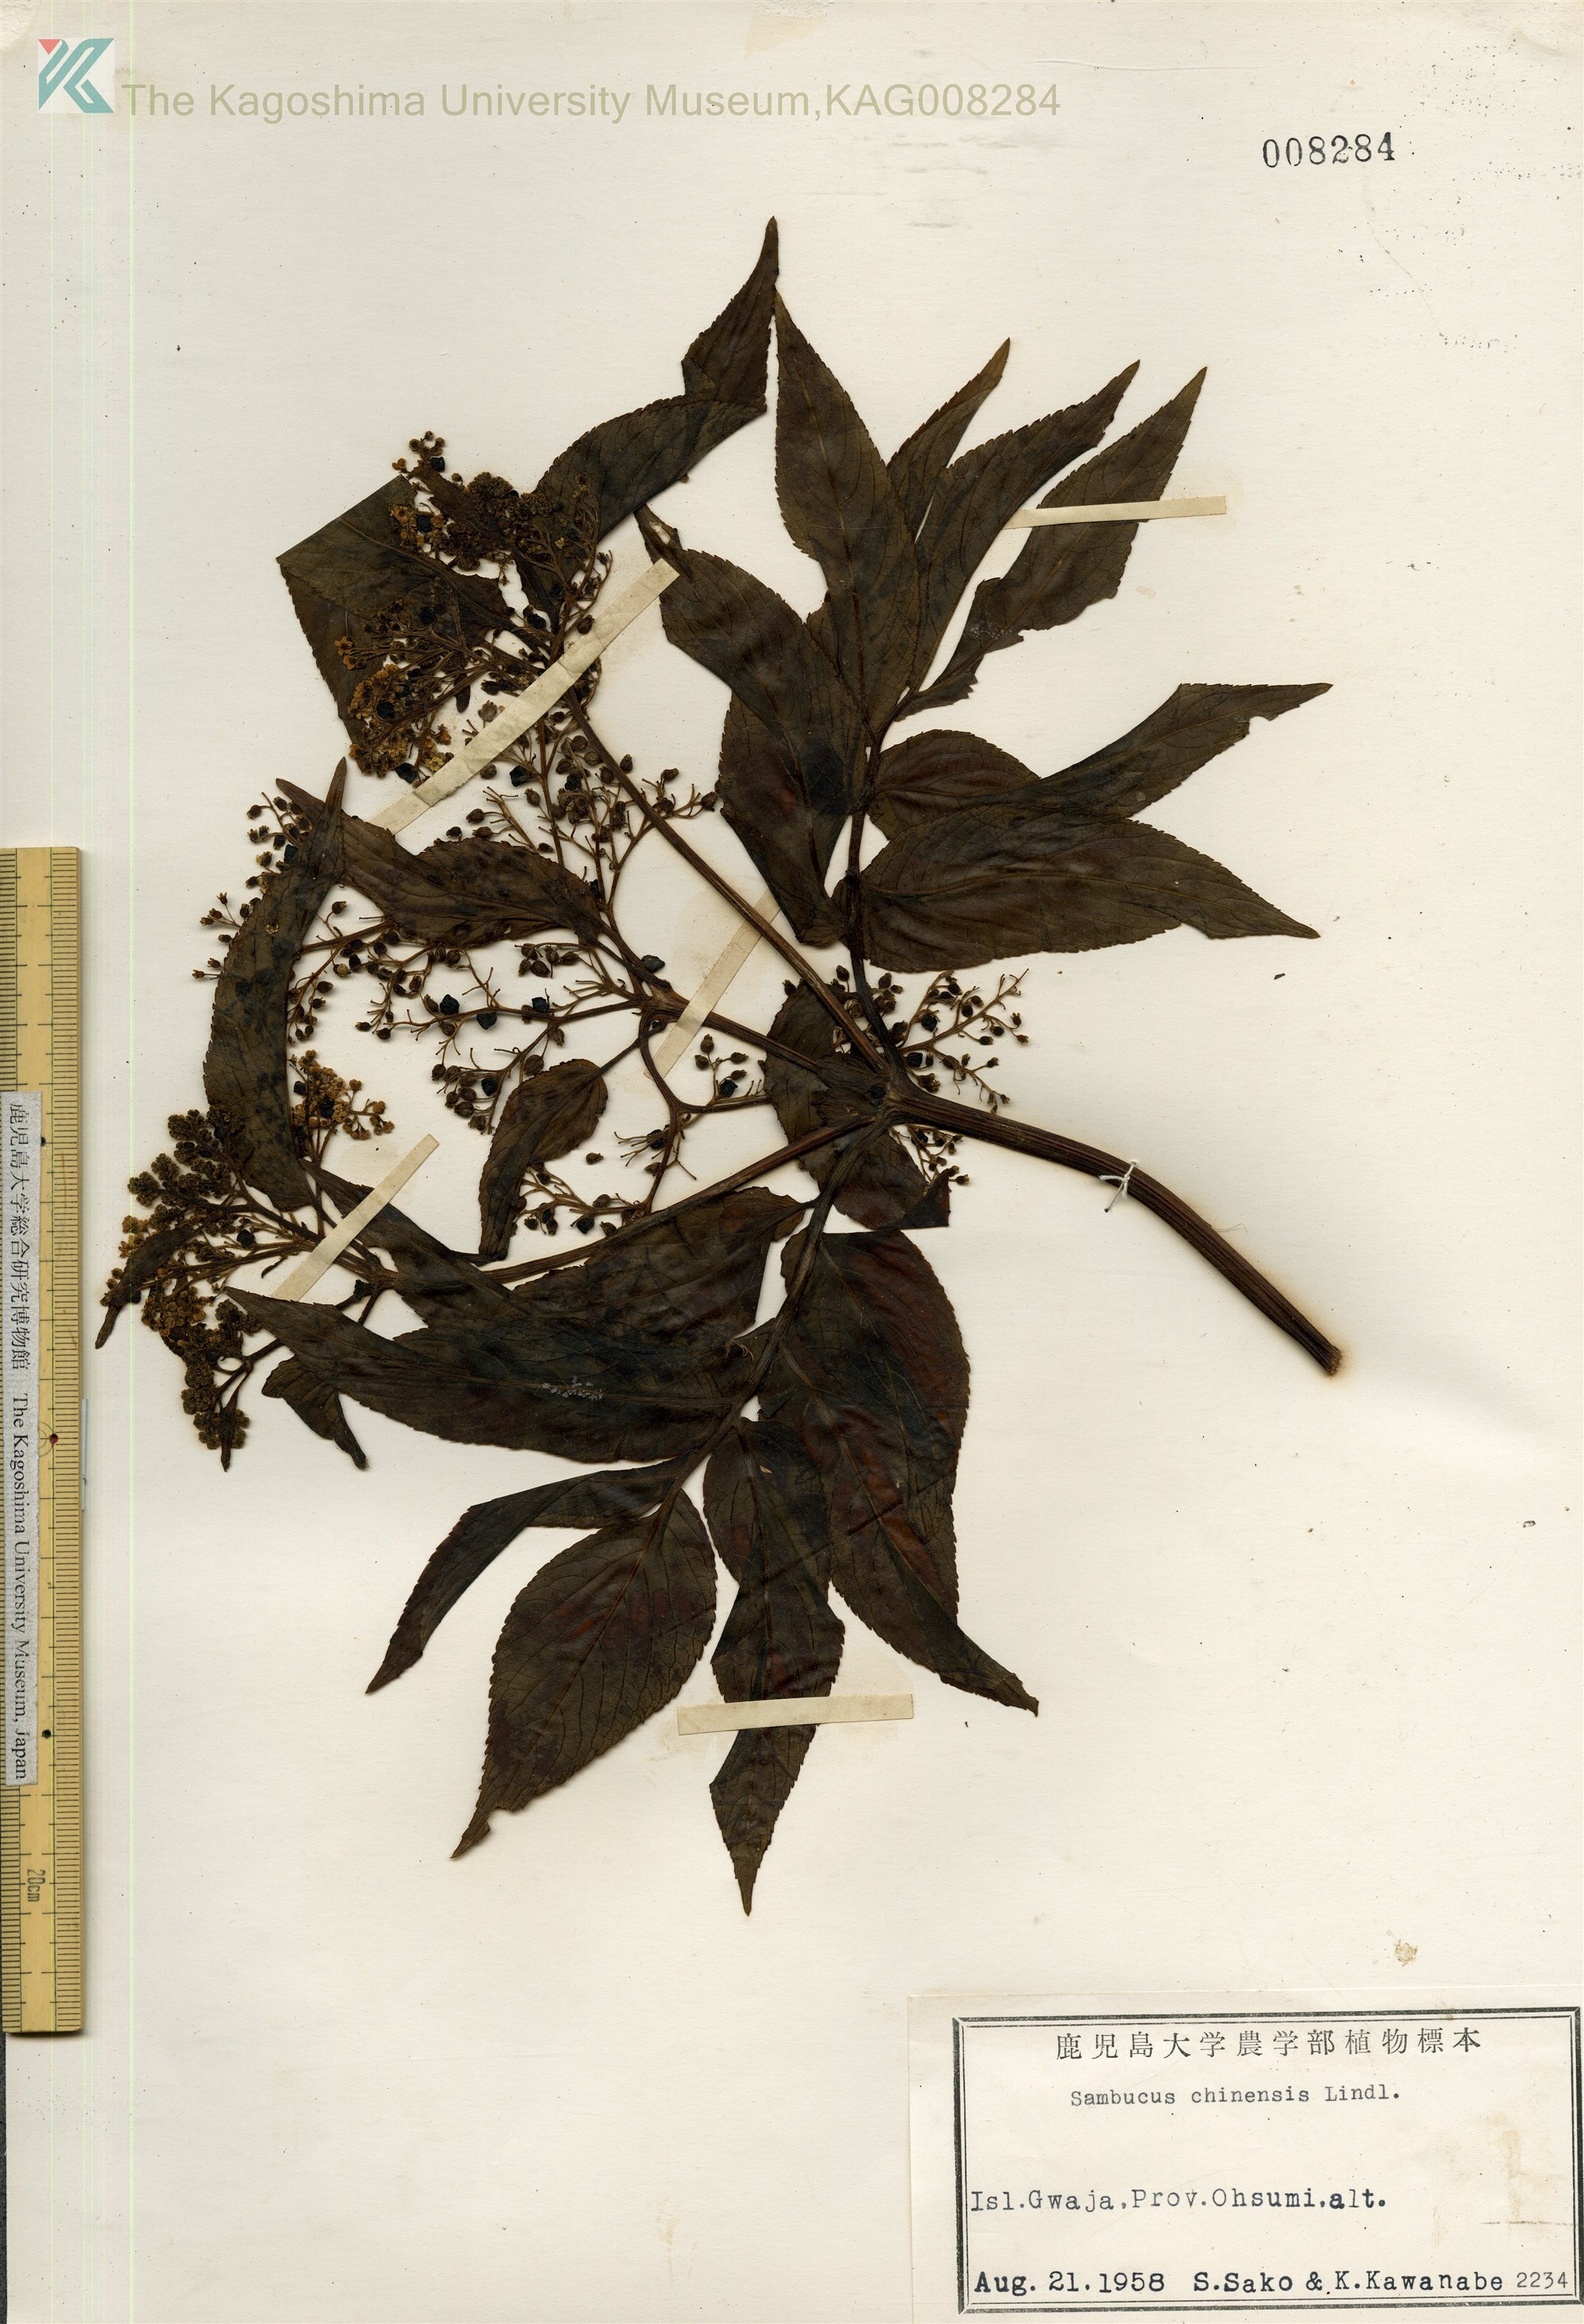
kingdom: Plantae
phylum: Tracheophyta
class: Magnoliopsida
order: Dipsacales
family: Viburnaceae
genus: Sambucus
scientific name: Sambucus javanica
